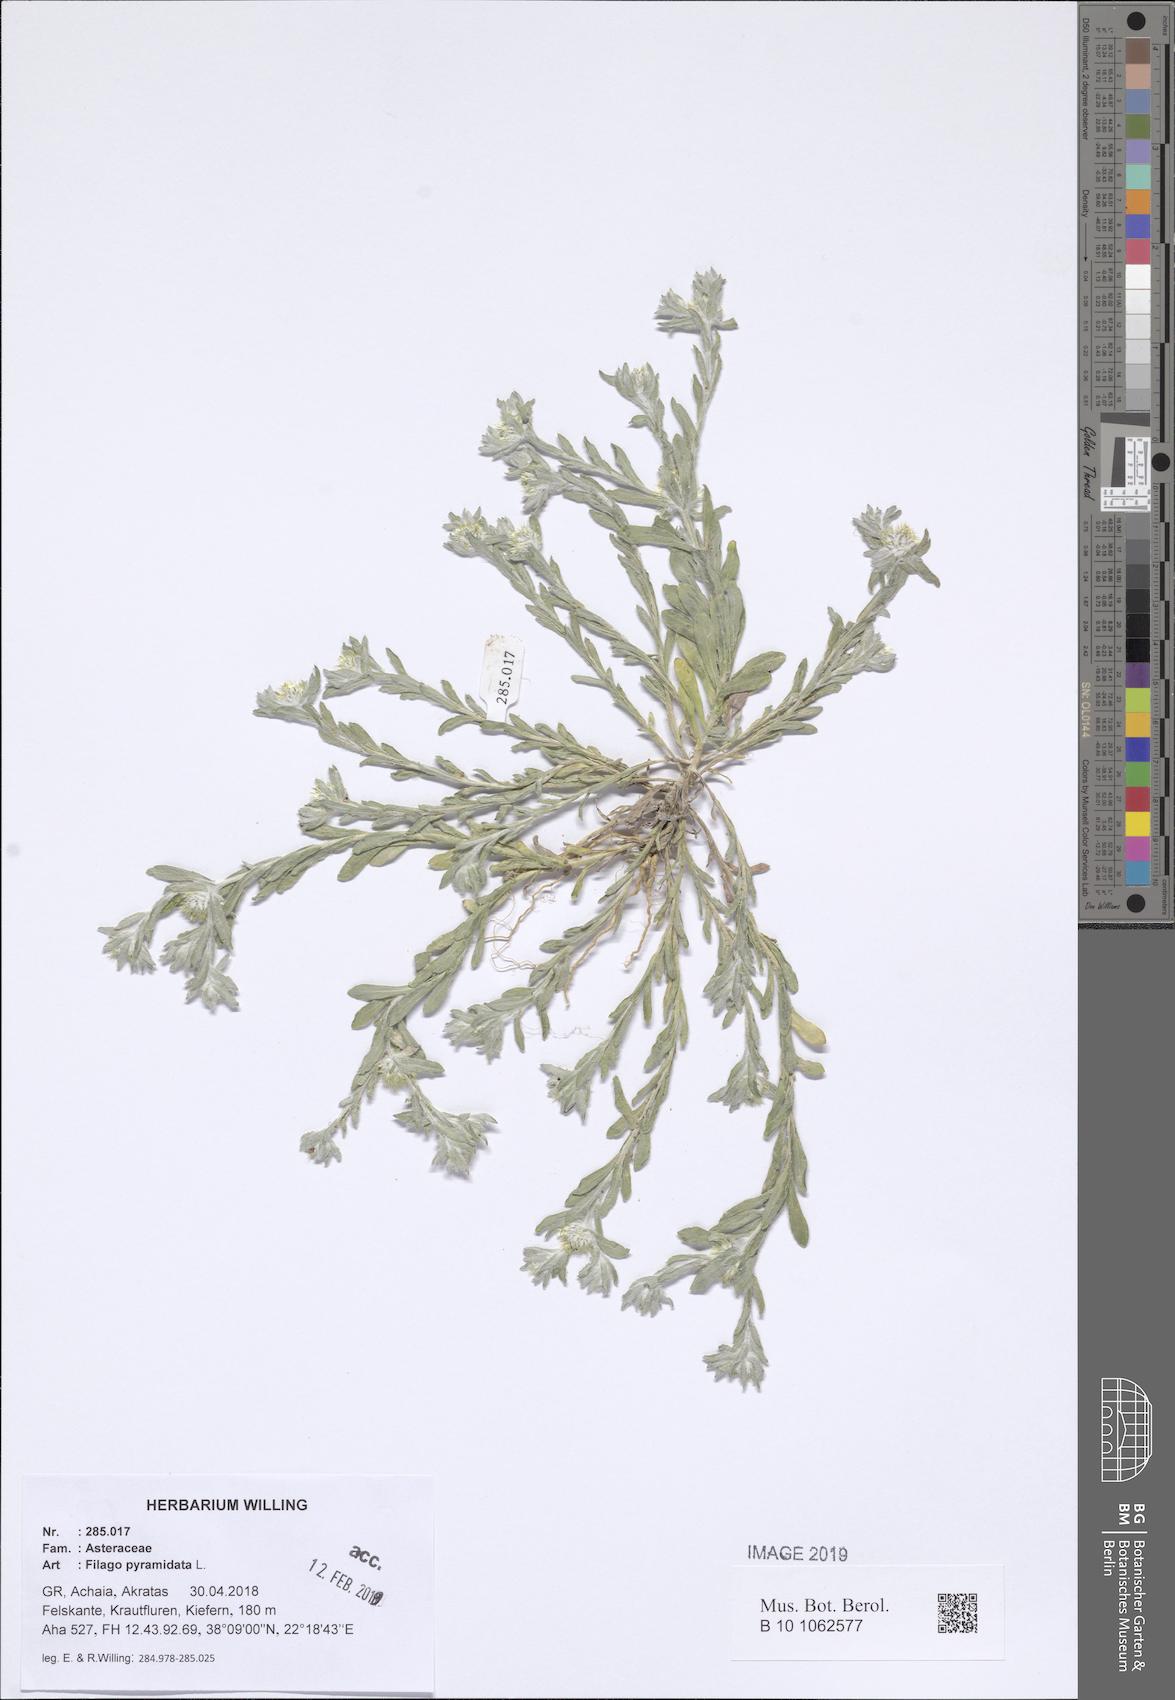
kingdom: Plantae
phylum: Tracheophyta
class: Magnoliopsida
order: Asterales
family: Asteraceae
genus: Filago
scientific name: Filago pyramidata
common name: Broad-leaved cudweed
